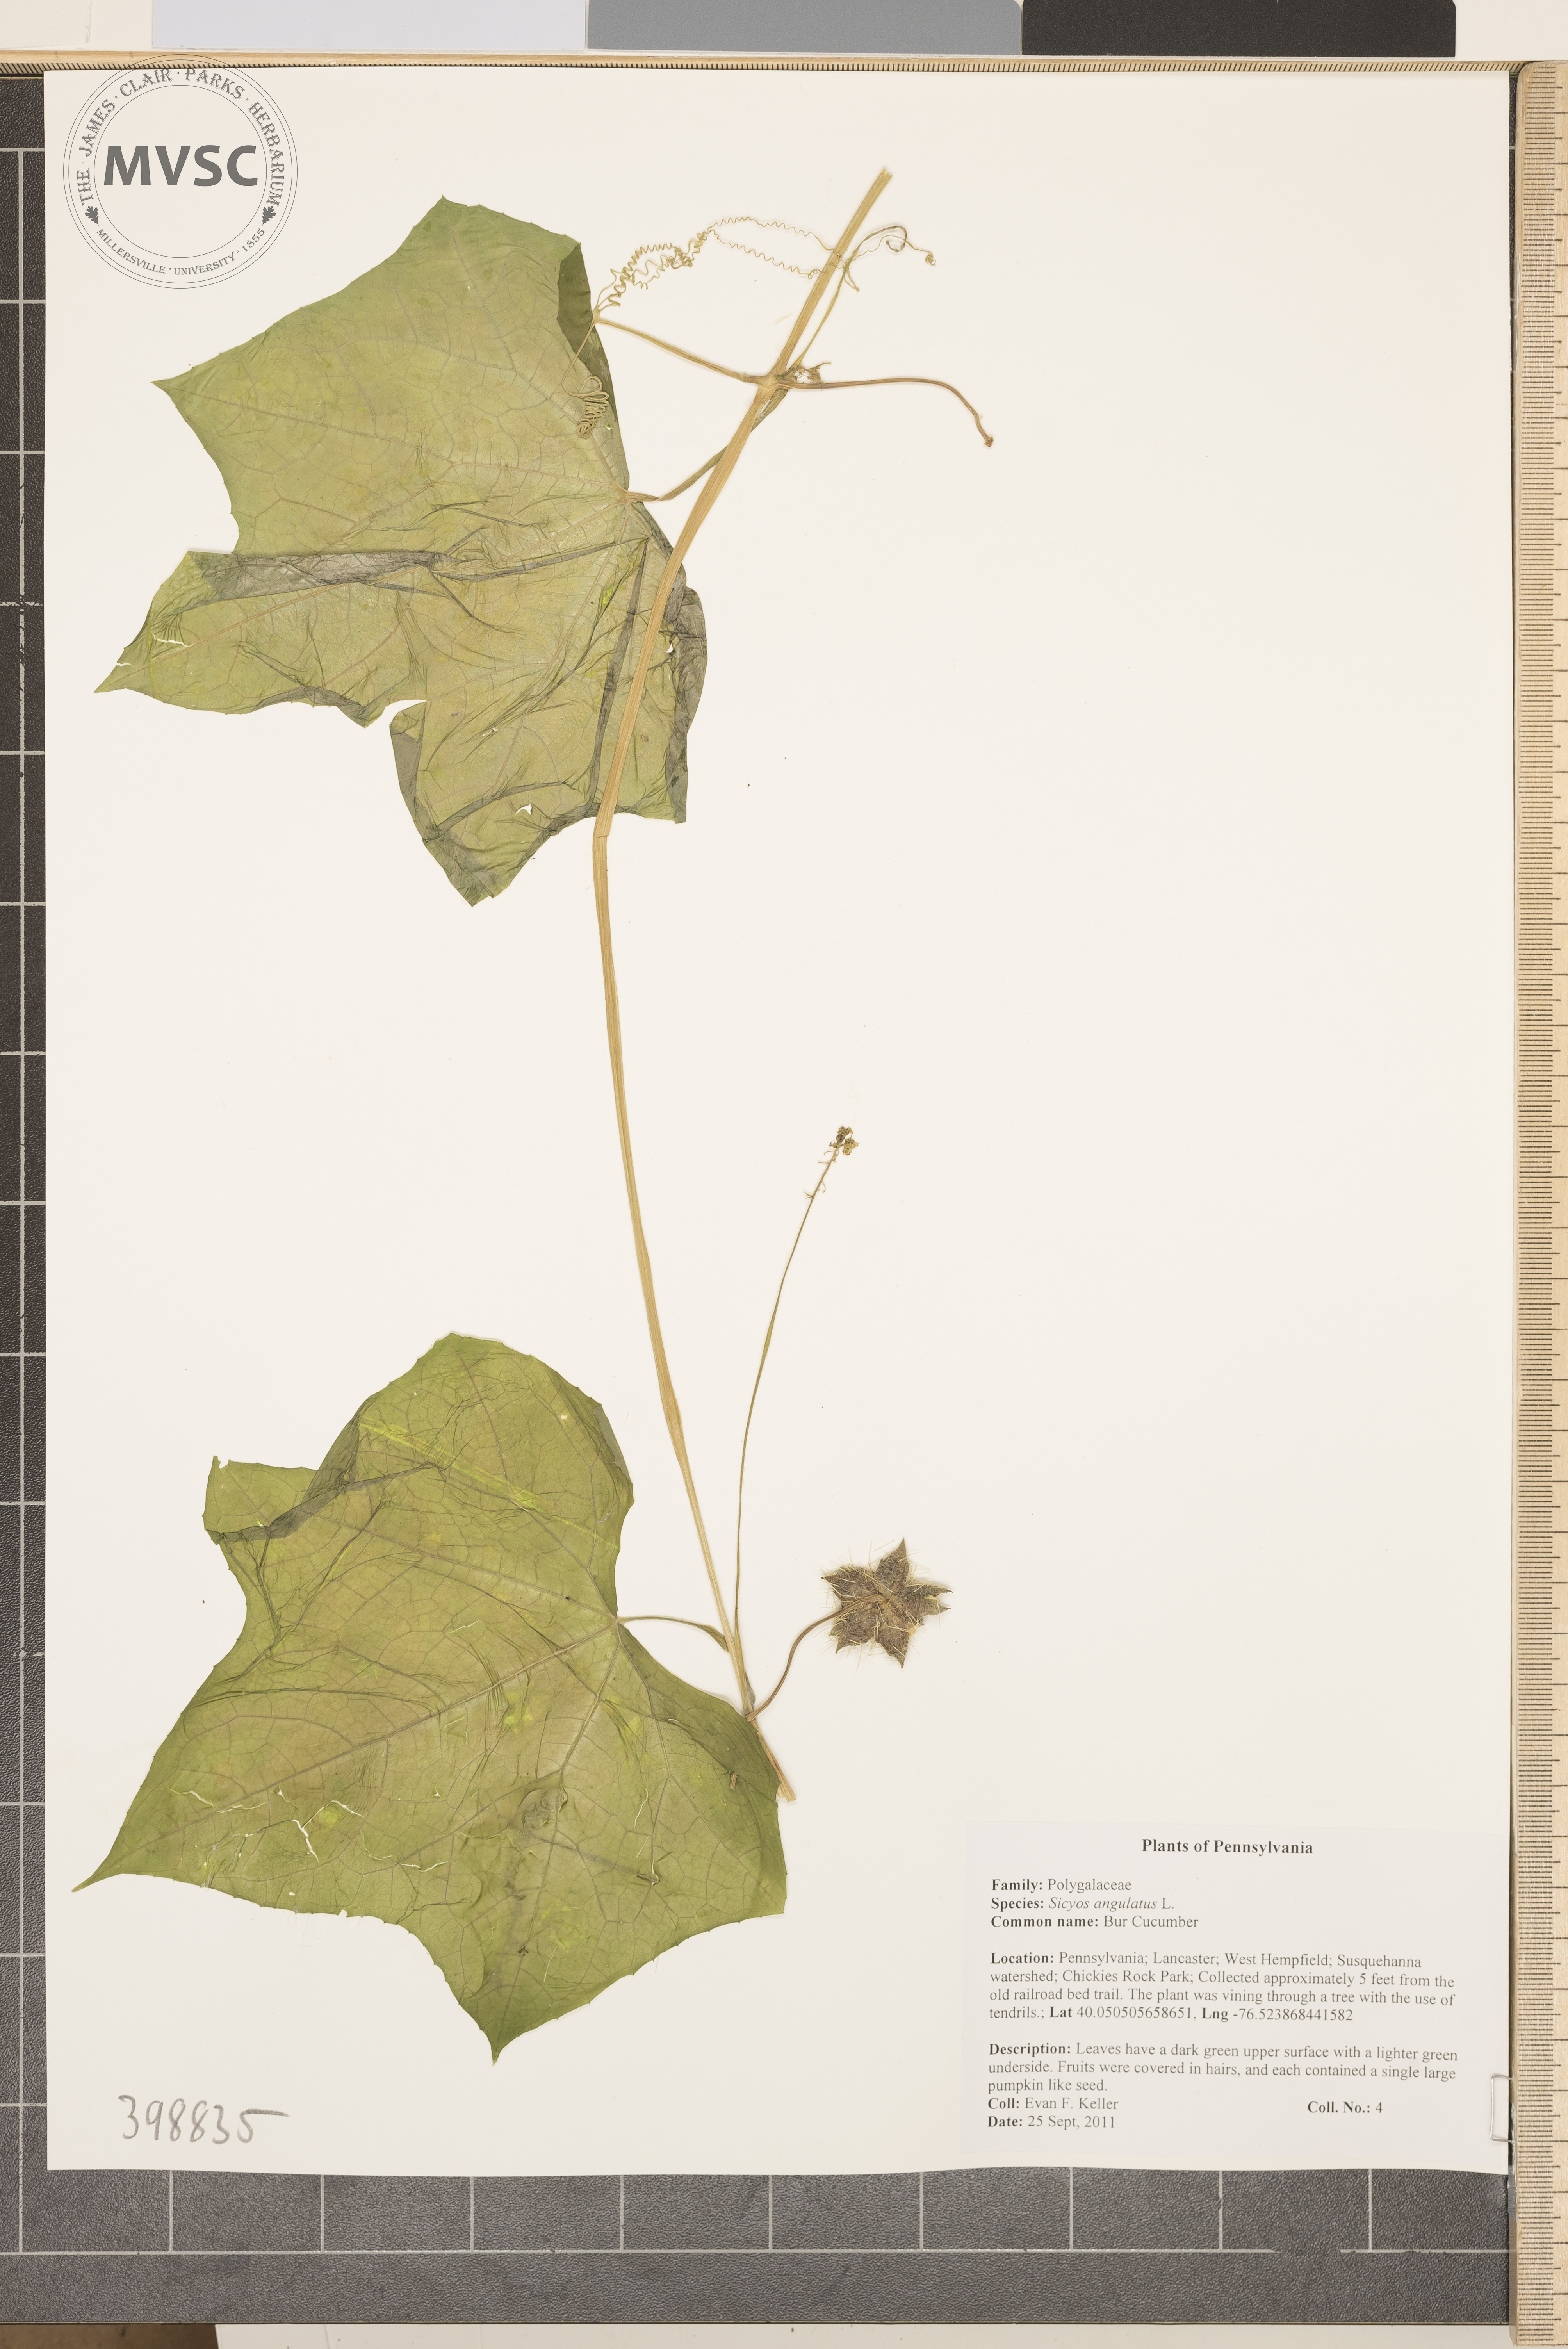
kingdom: Plantae
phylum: Tracheophyta
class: Magnoliopsida
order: Cucurbitales
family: Cucurbitaceae
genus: Sicyos
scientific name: Sicyos angulatus
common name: Bur cucumber
